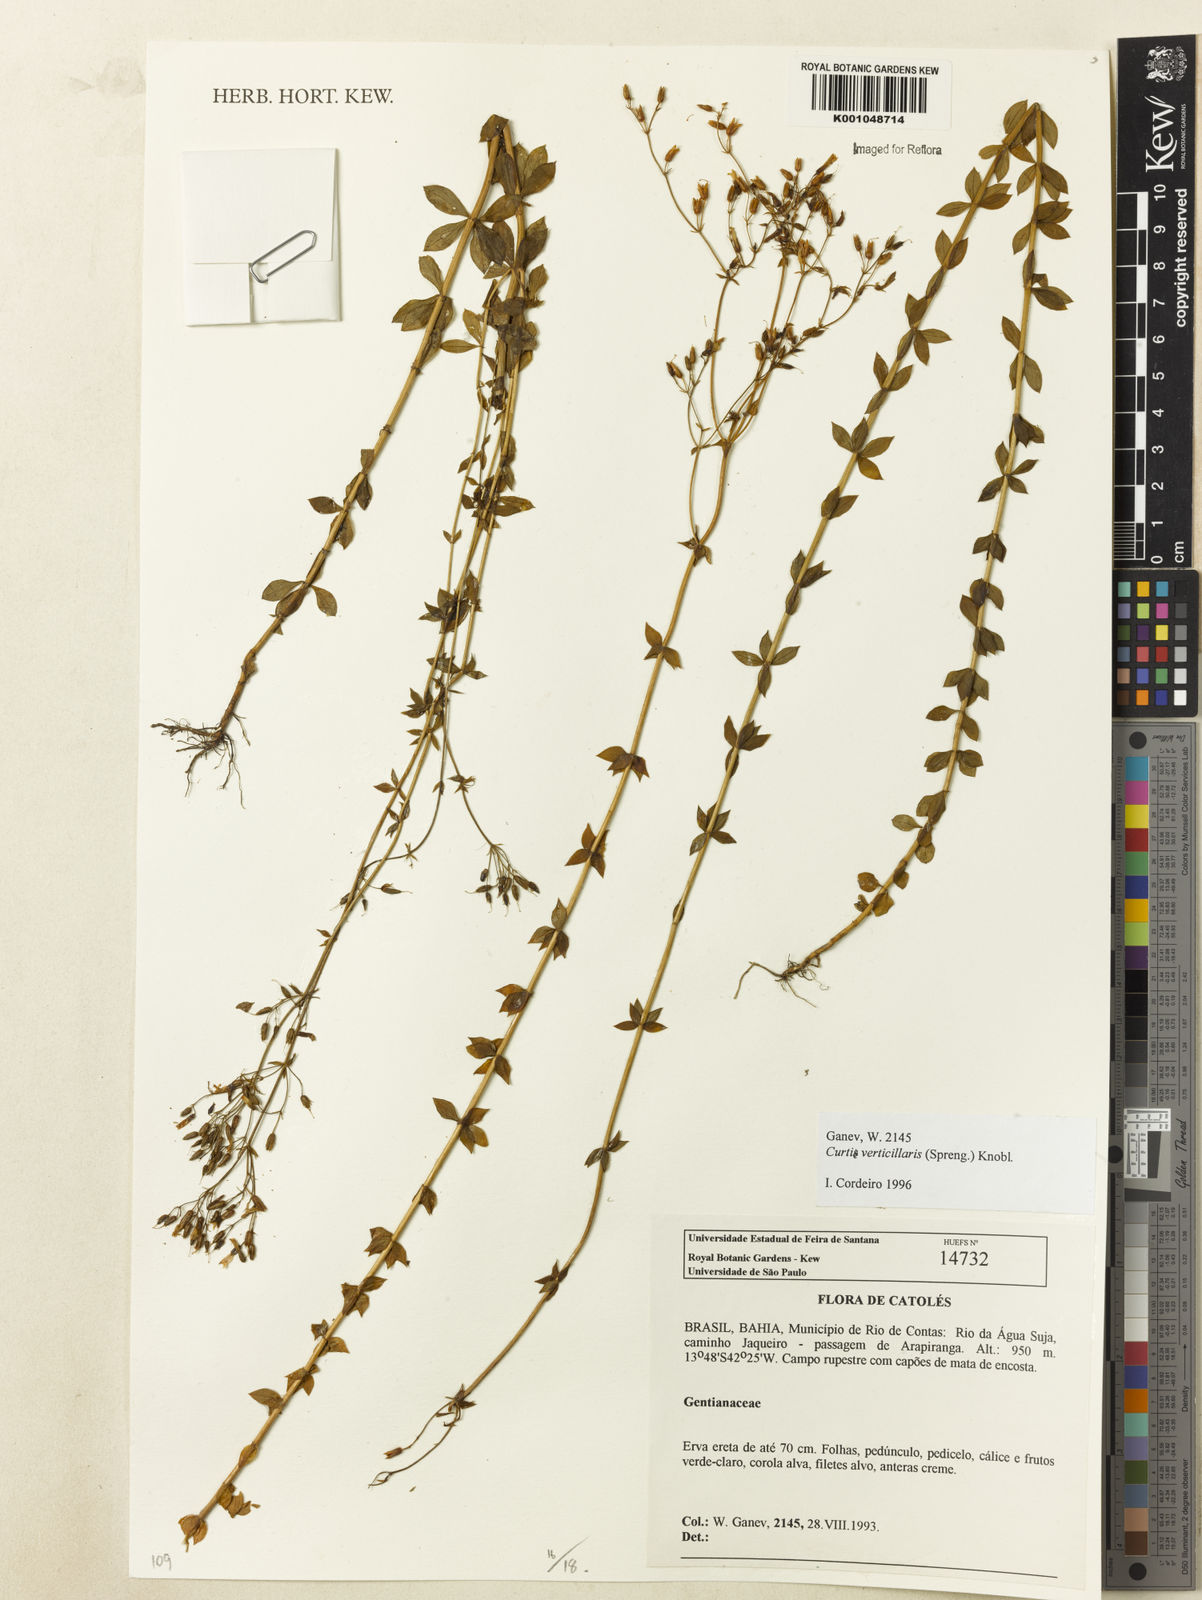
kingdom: Plantae
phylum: Tracheophyta
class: Magnoliopsida
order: Gentianales
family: Gentianaceae
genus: Curtia
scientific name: Curtia verticillaris
